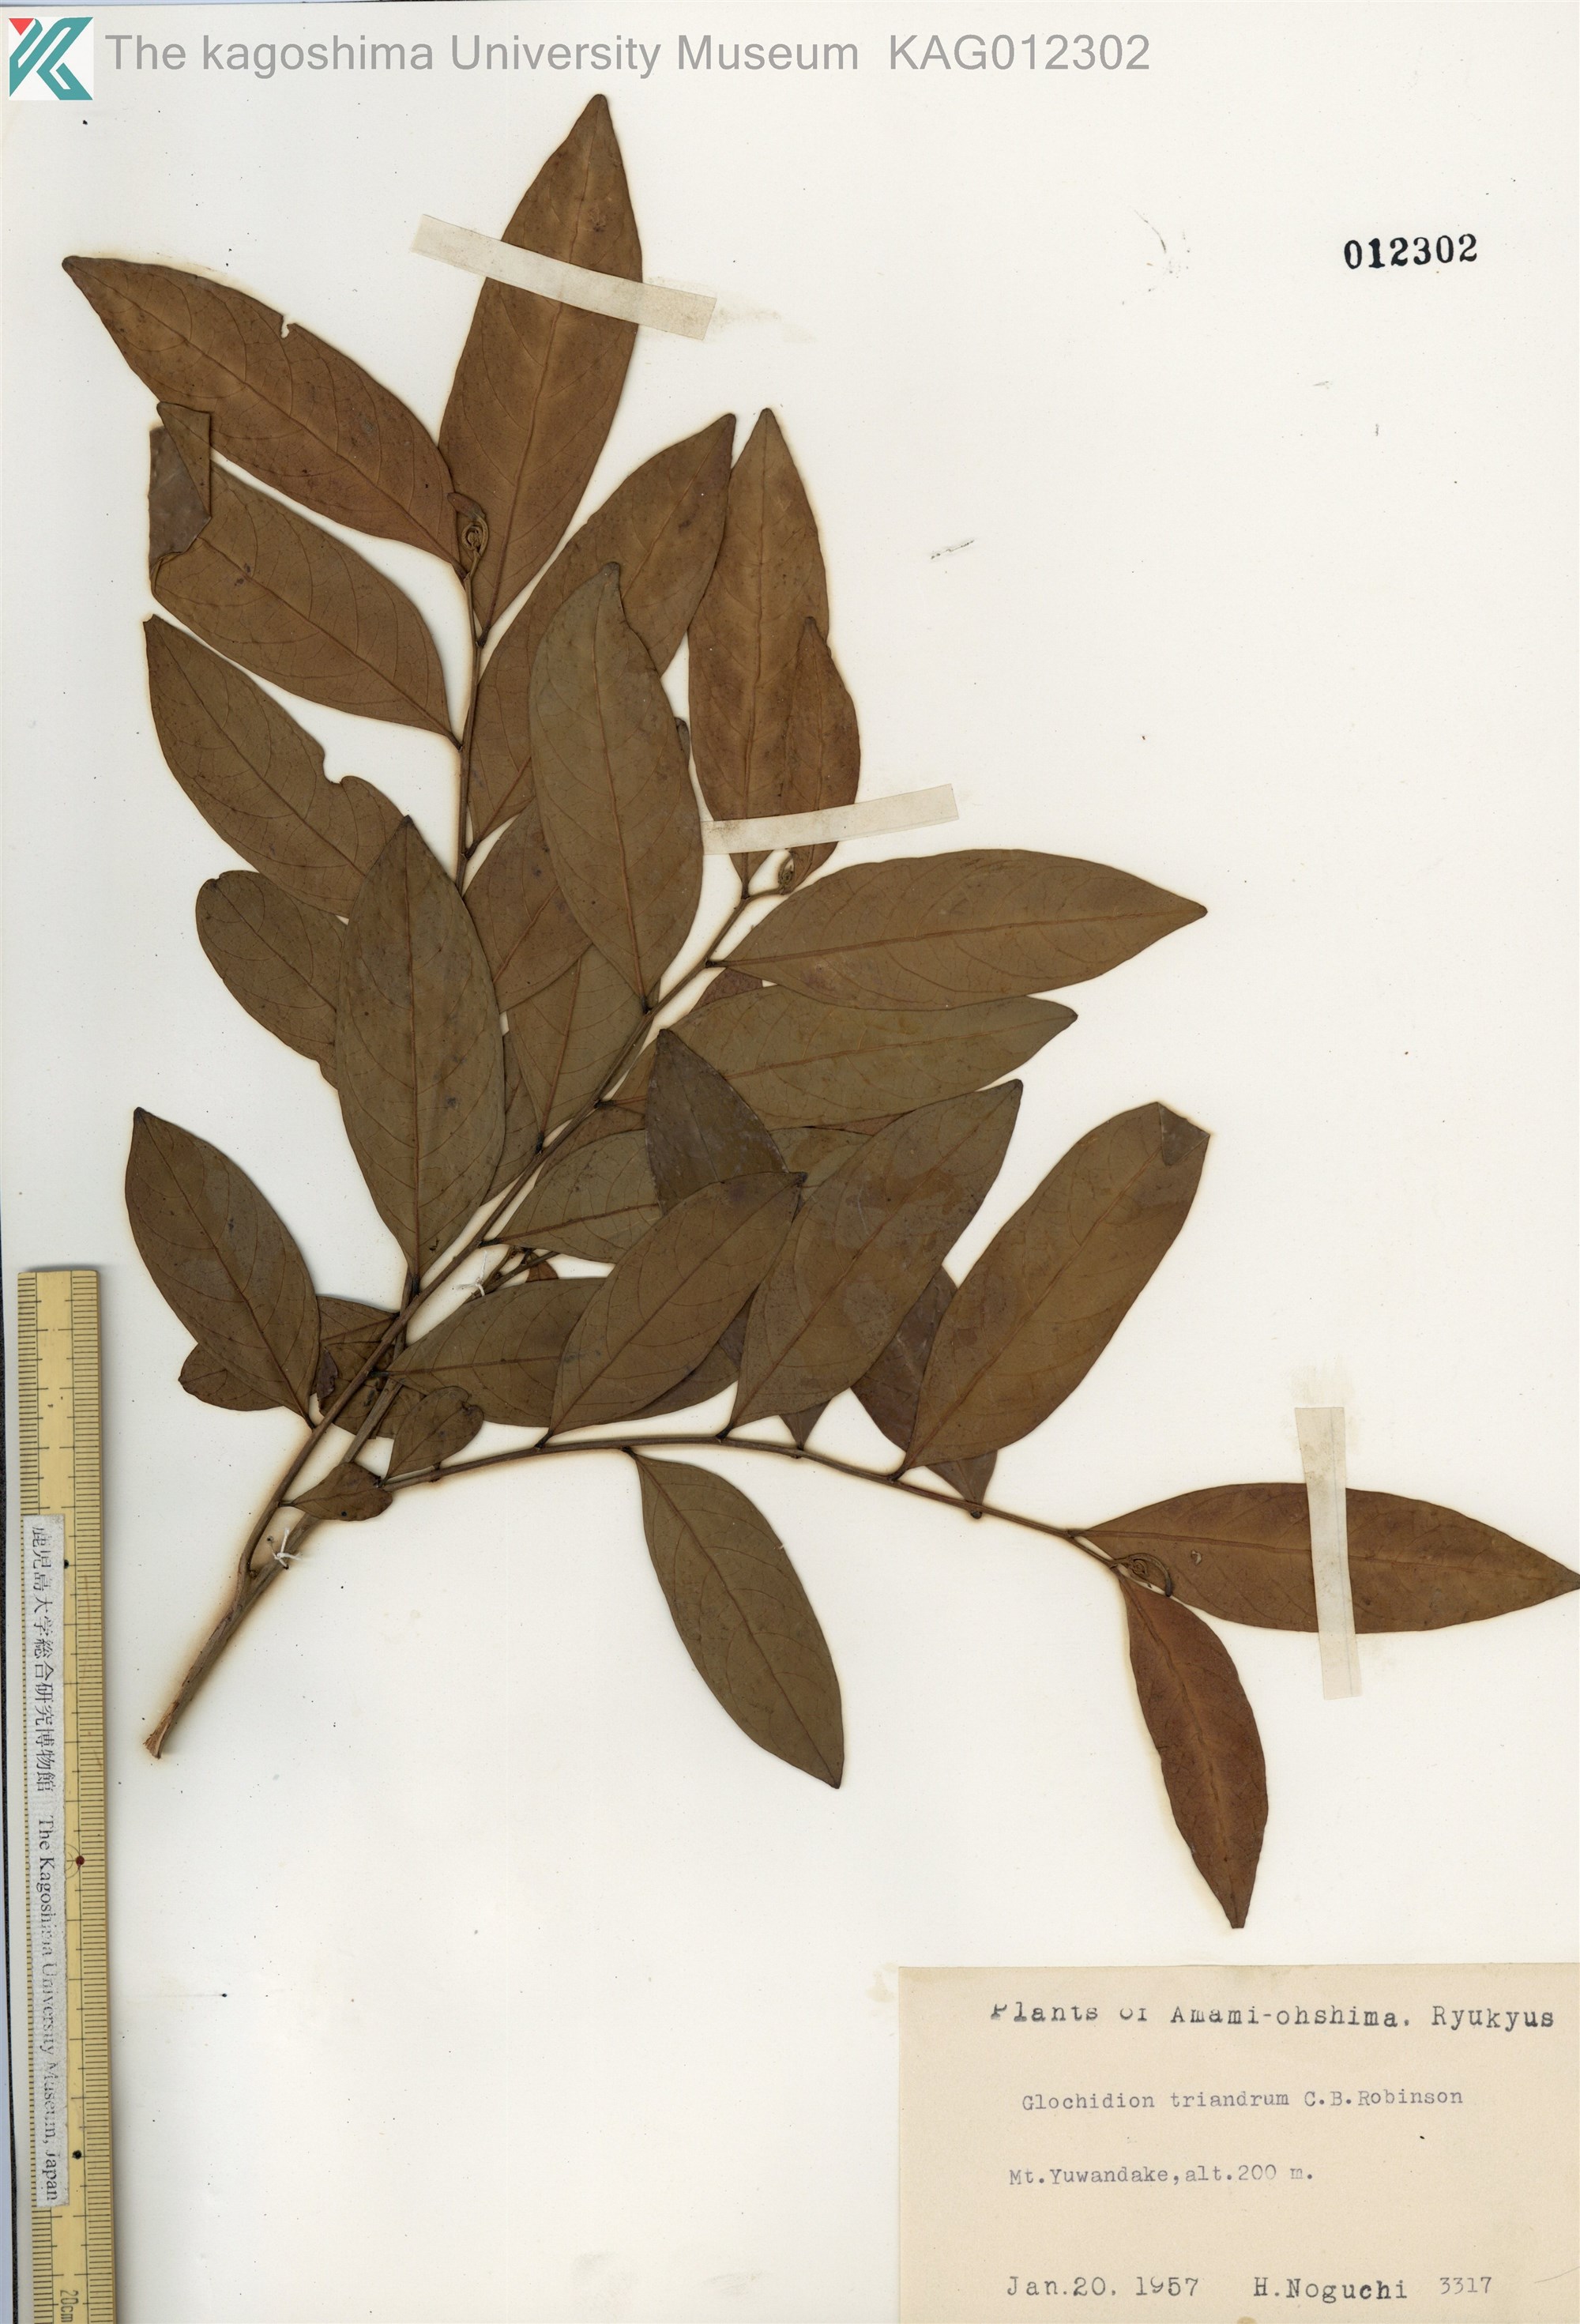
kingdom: Plantae
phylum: Tracheophyta
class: Magnoliopsida
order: Malpighiales
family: Phyllanthaceae
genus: Glochidion
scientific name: Glochidion triandrum
